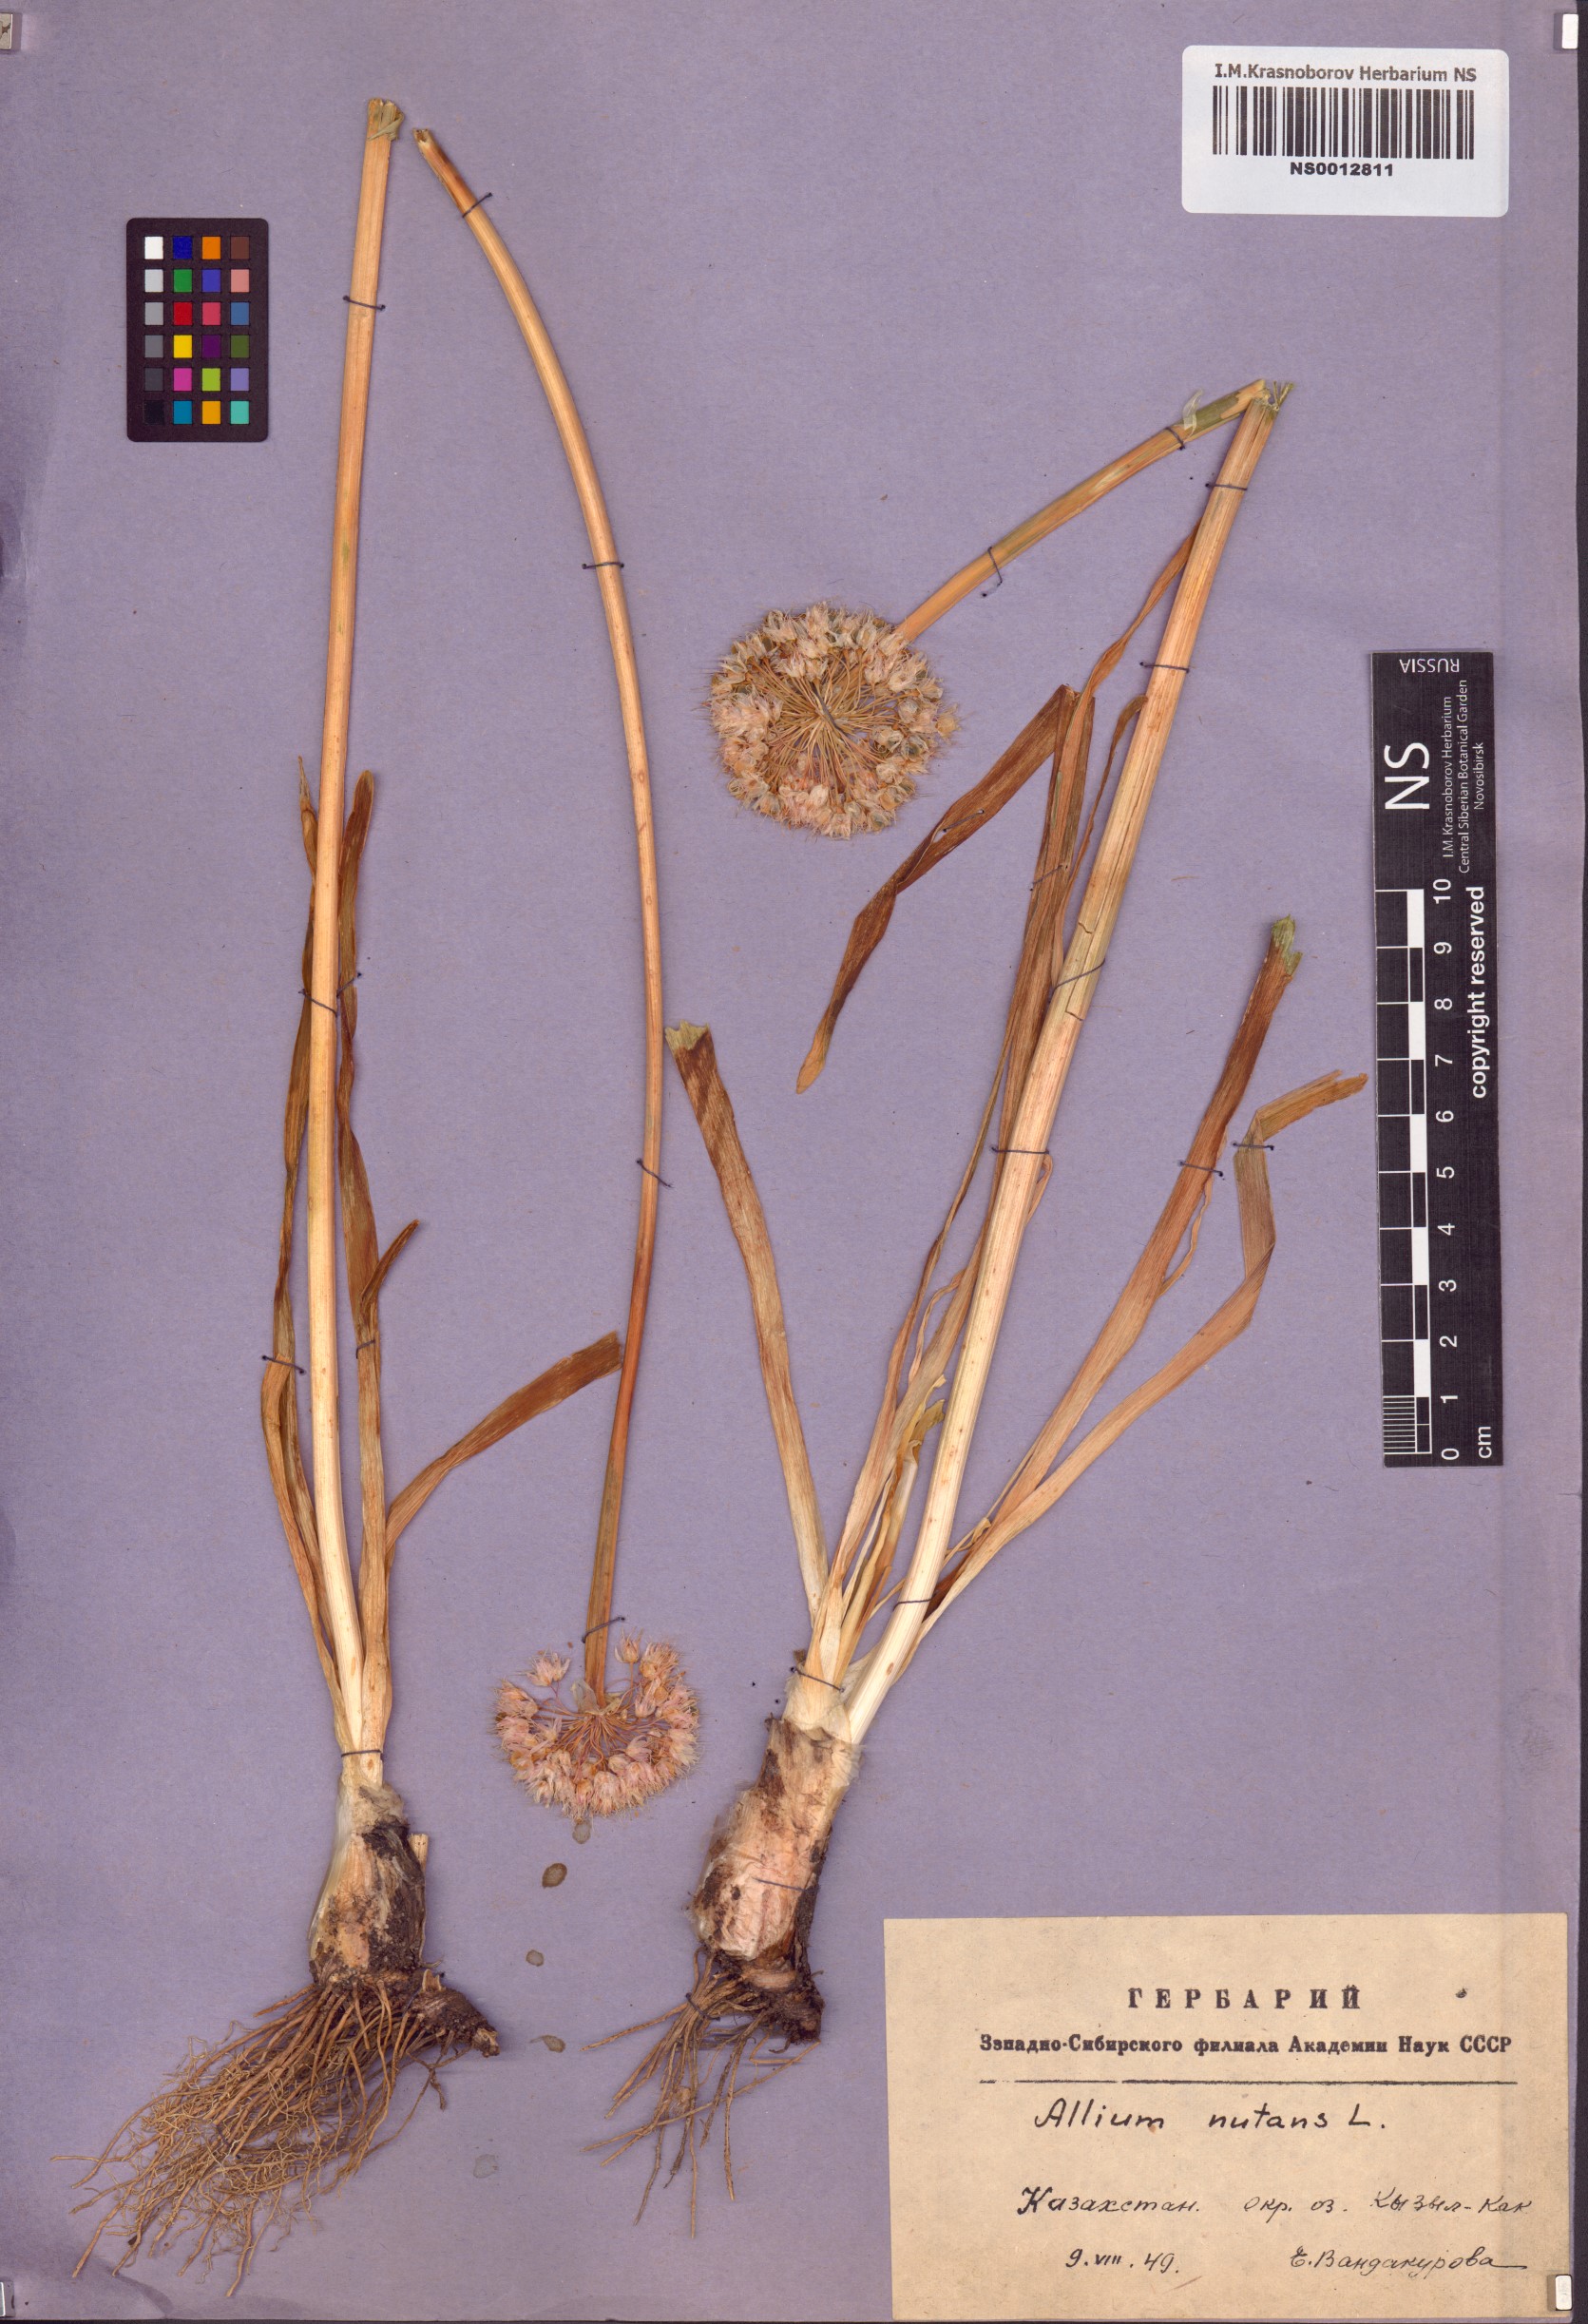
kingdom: Plantae
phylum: Tracheophyta
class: Liliopsida
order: Asparagales
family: Amaryllidaceae
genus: Allium
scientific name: Allium nutans
